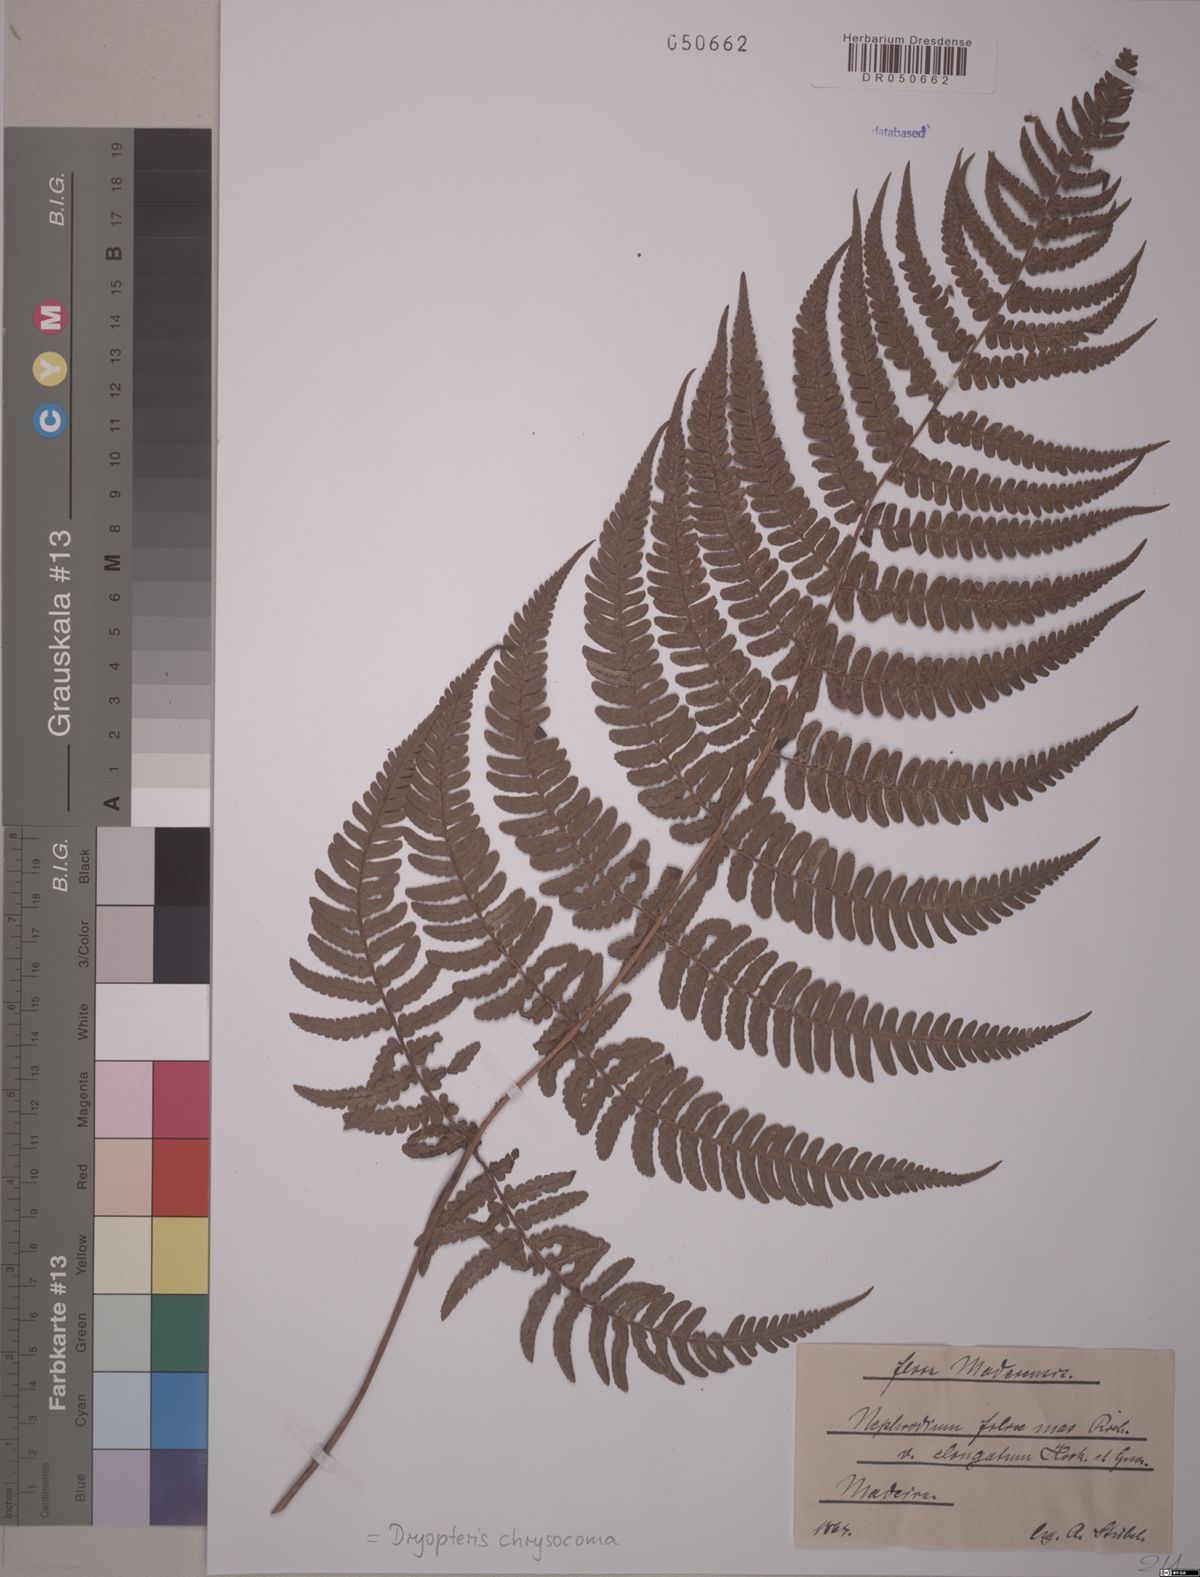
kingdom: Plantae
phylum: Tracheophyta
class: Polypodiopsida
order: Polypodiales
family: Dryopteridaceae
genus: Dryopteris
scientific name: Dryopteris chrysocoma
